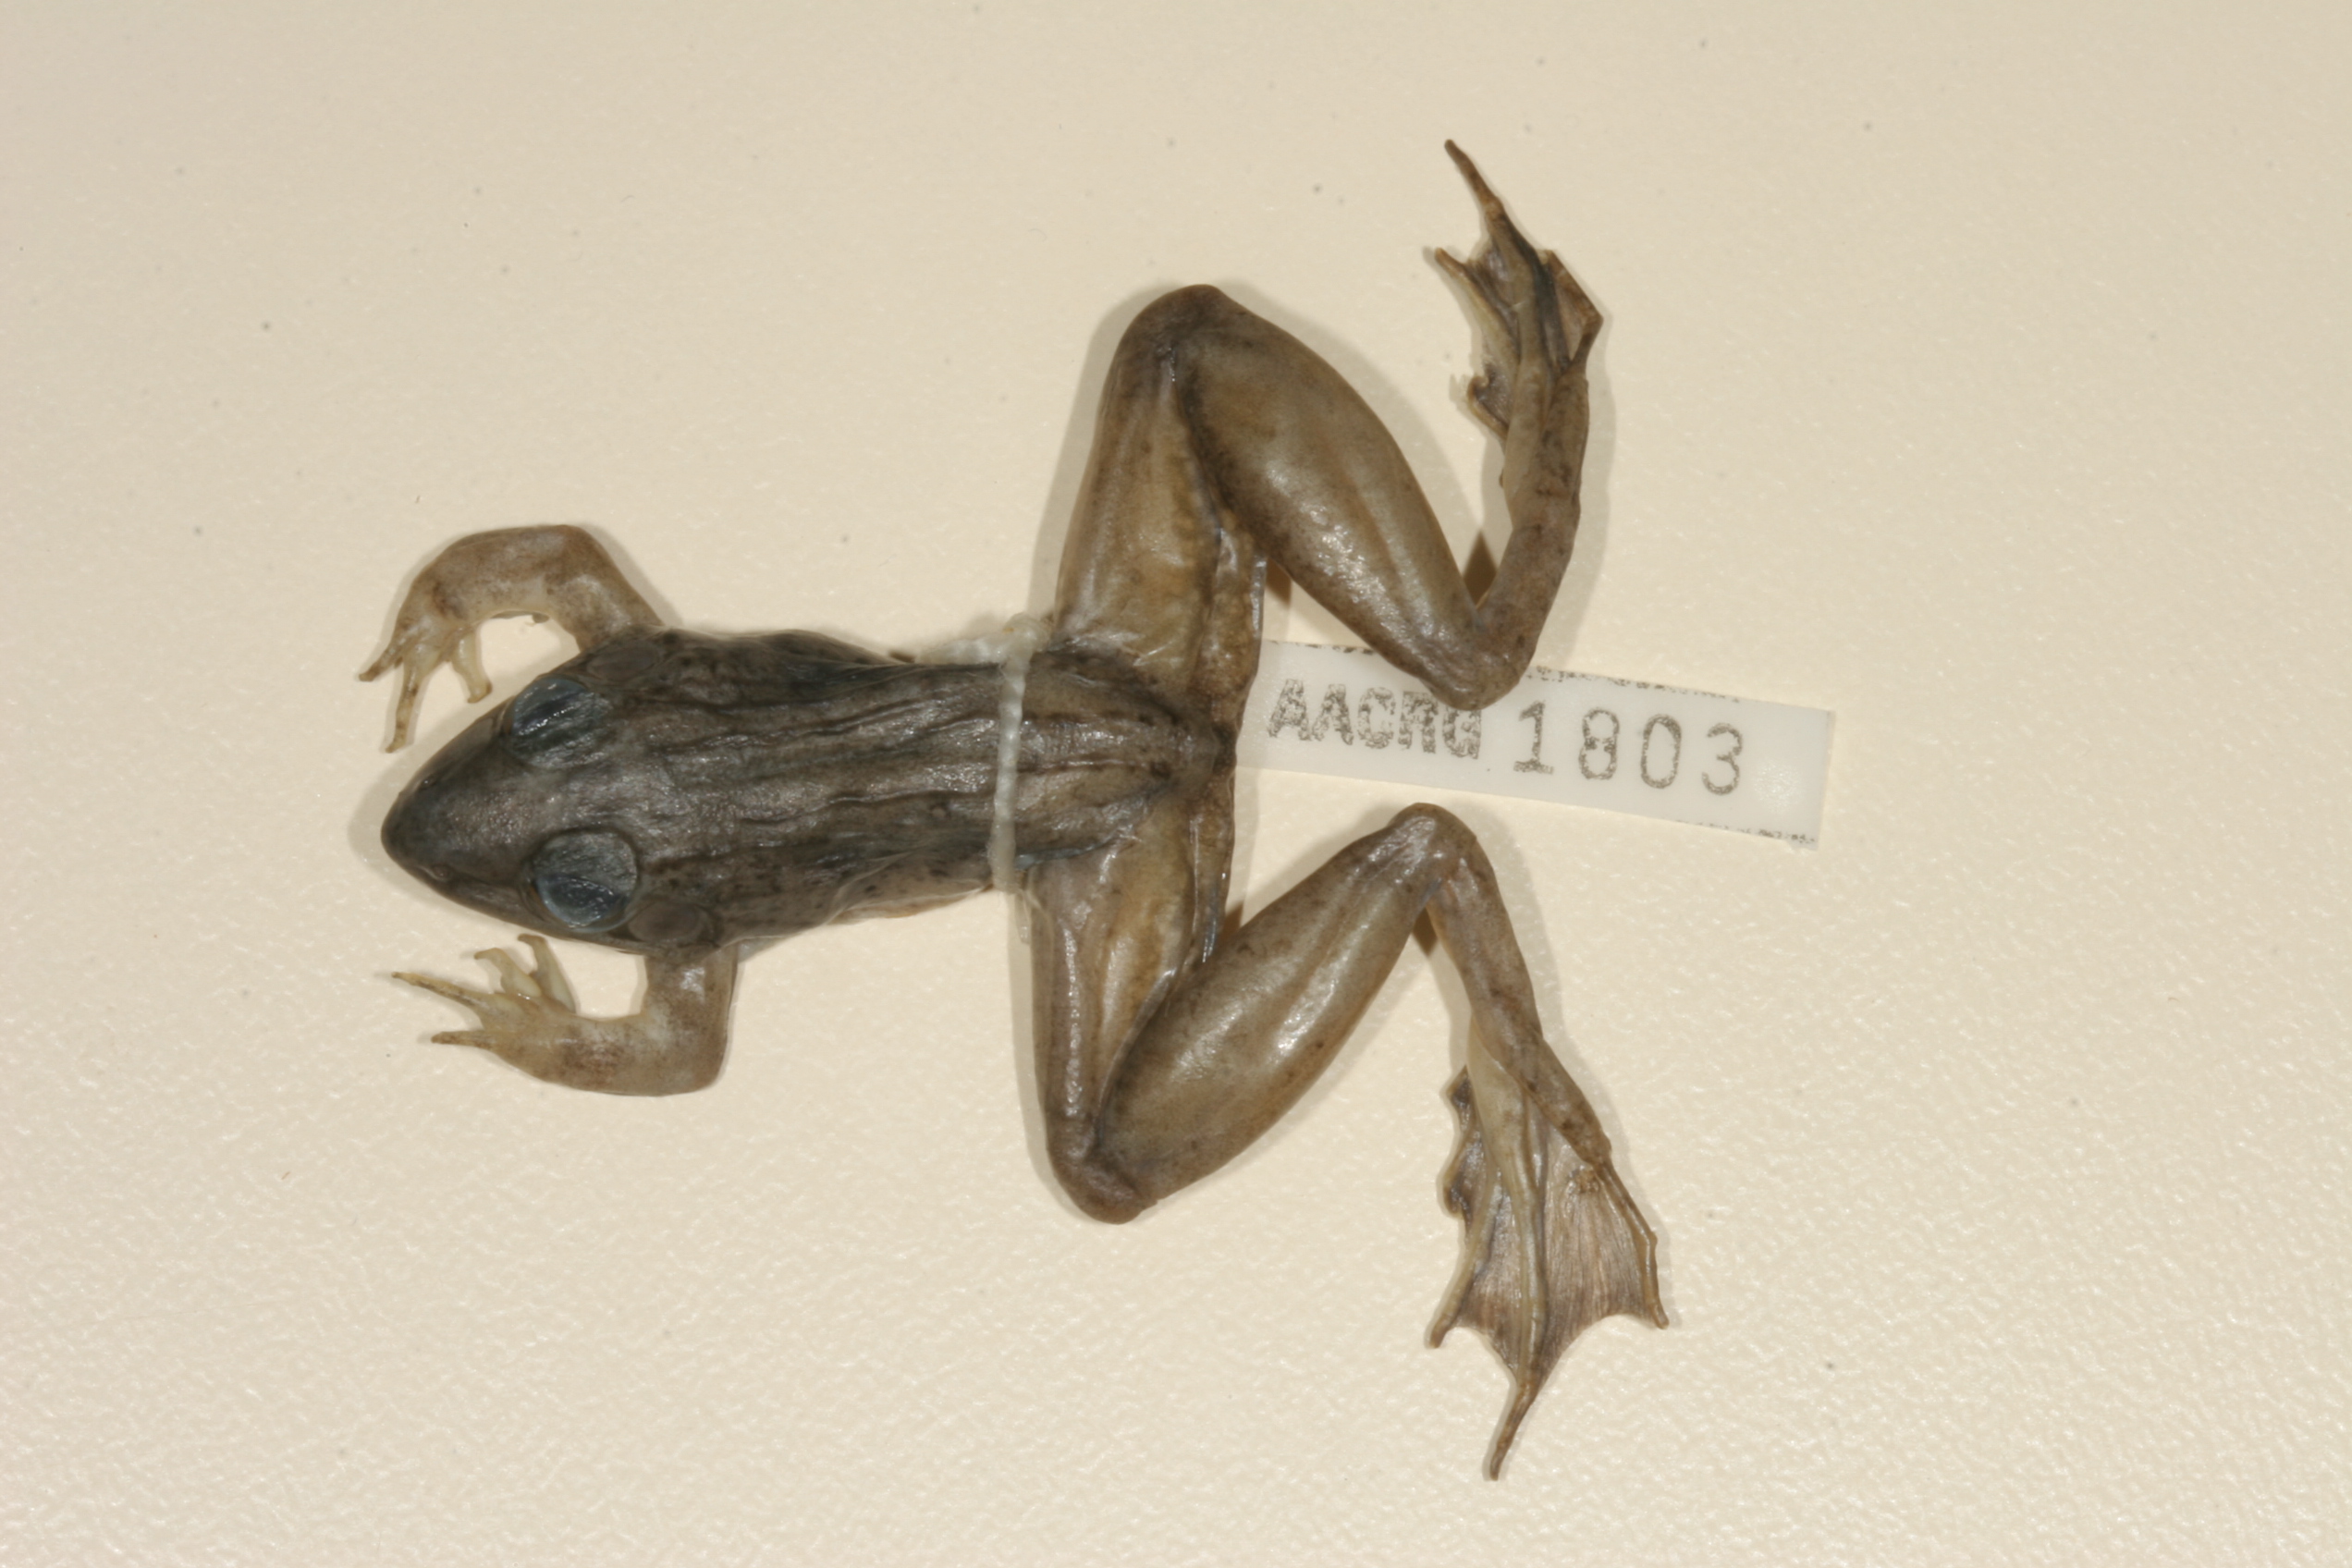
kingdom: Animalia
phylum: Chordata
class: Amphibia
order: Anura
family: Ptychadenidae
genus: Ptychadena
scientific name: Ptychadena anchietae
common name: Anchieta's ridged frog
